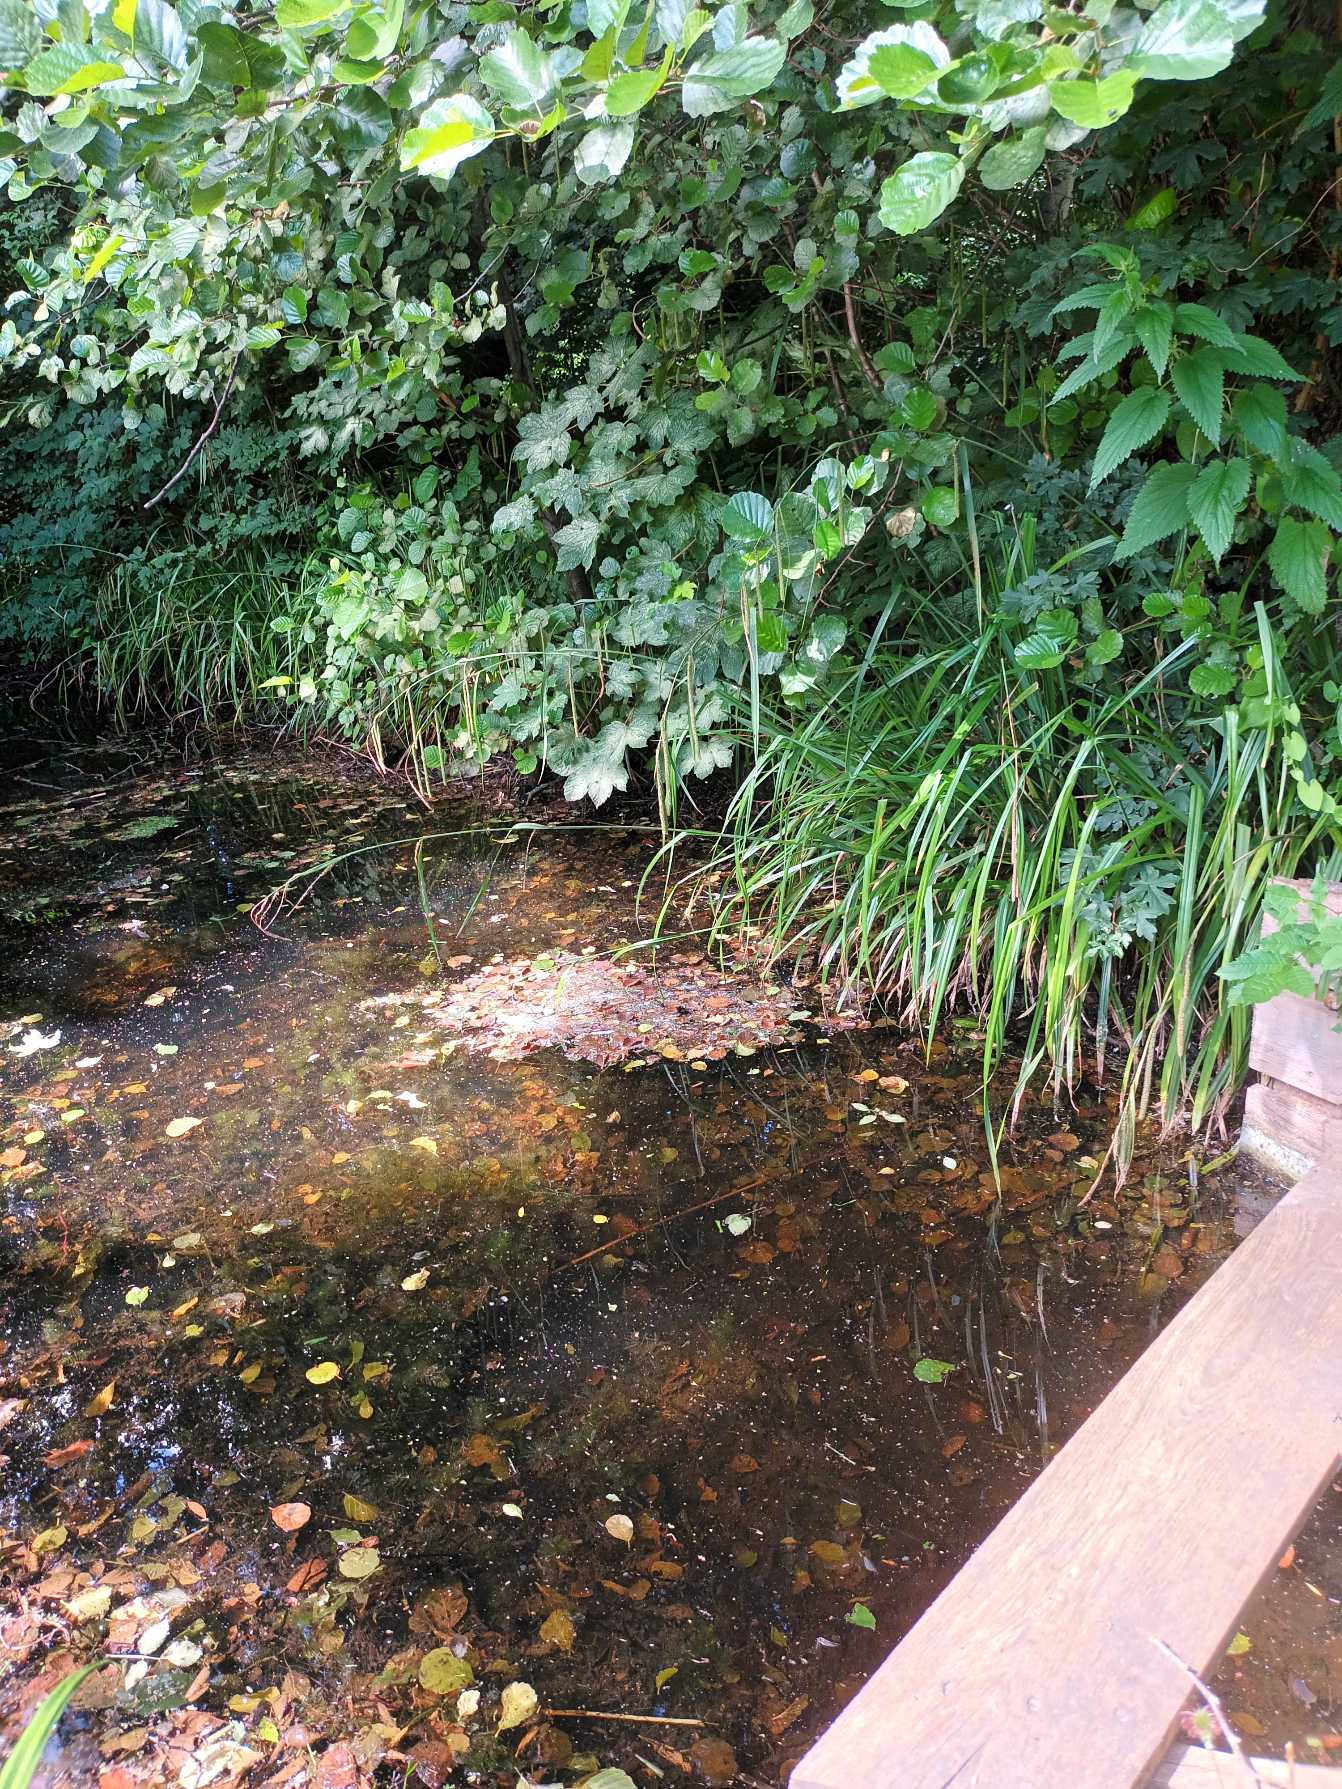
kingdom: Plantae
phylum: Tracheophyta
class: Liliopsida
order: Poales
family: Cyperaceae
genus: Carex
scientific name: Carex pendula
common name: Kæmpe-star
